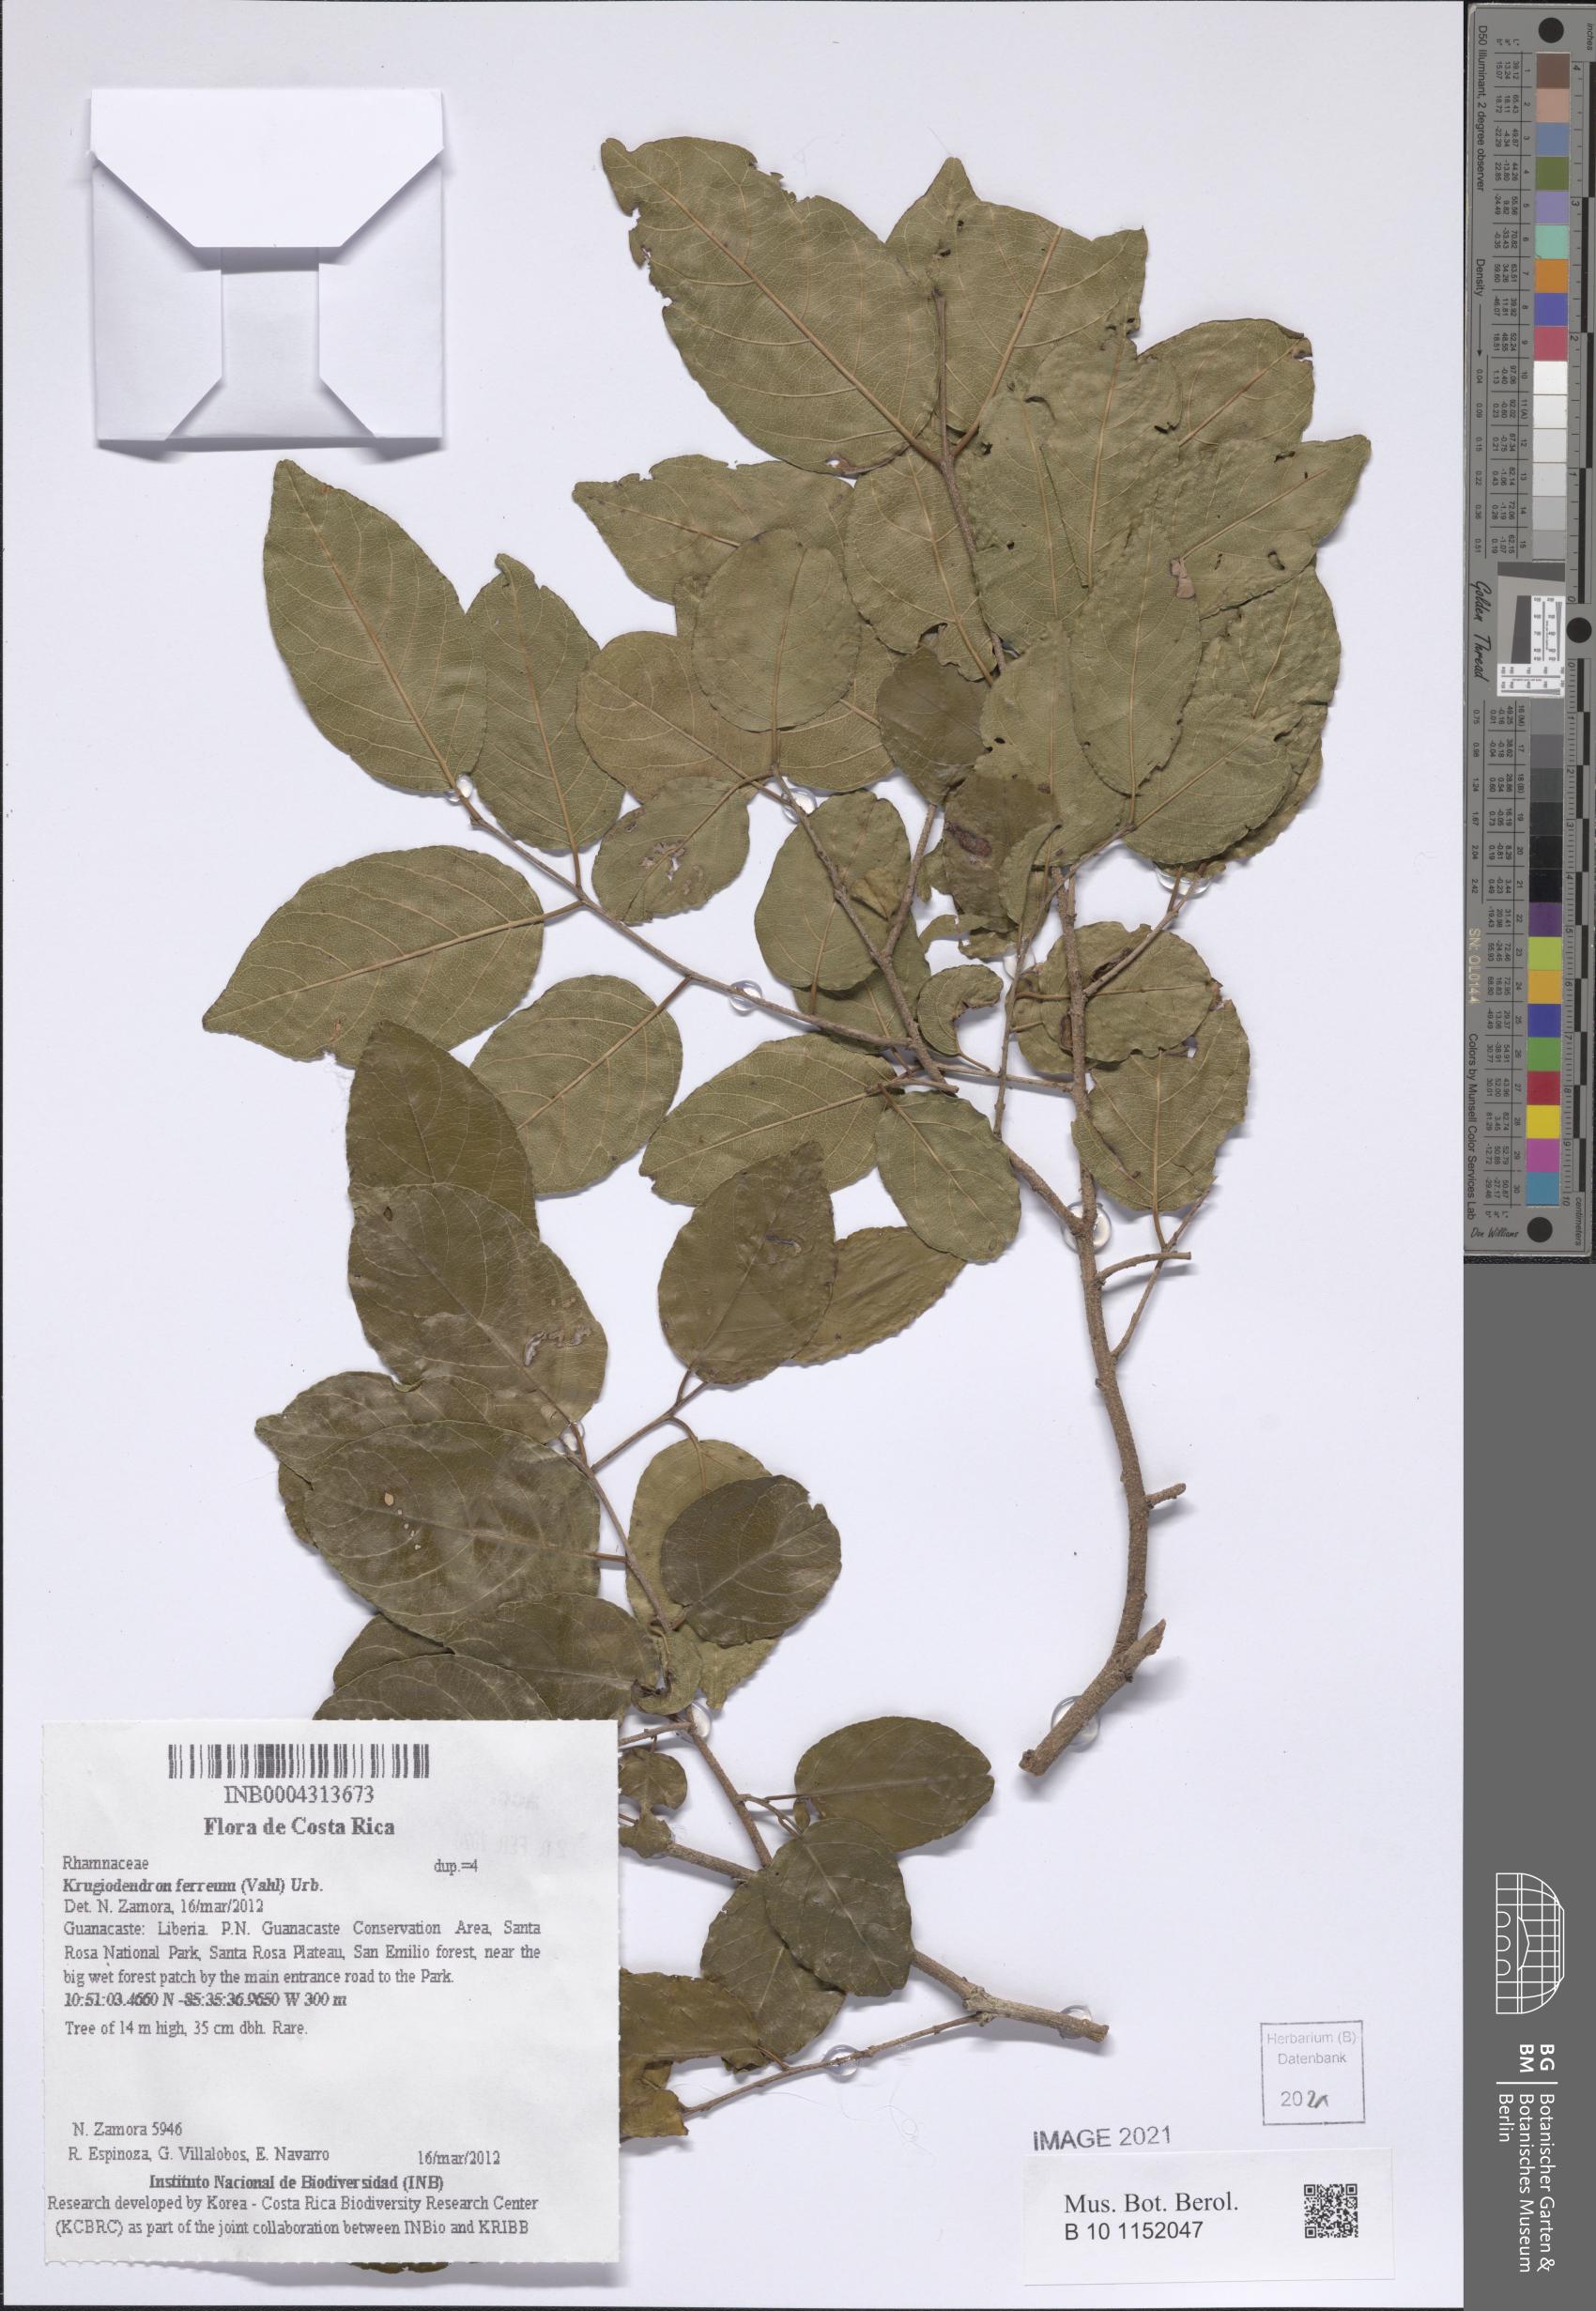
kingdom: Plantae
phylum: Tracheophyta
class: Magnoliopsida
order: Rosales
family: Rhamnaceae
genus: Krugiodendron
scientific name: Krugiodendron ferreum
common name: Iron wood
